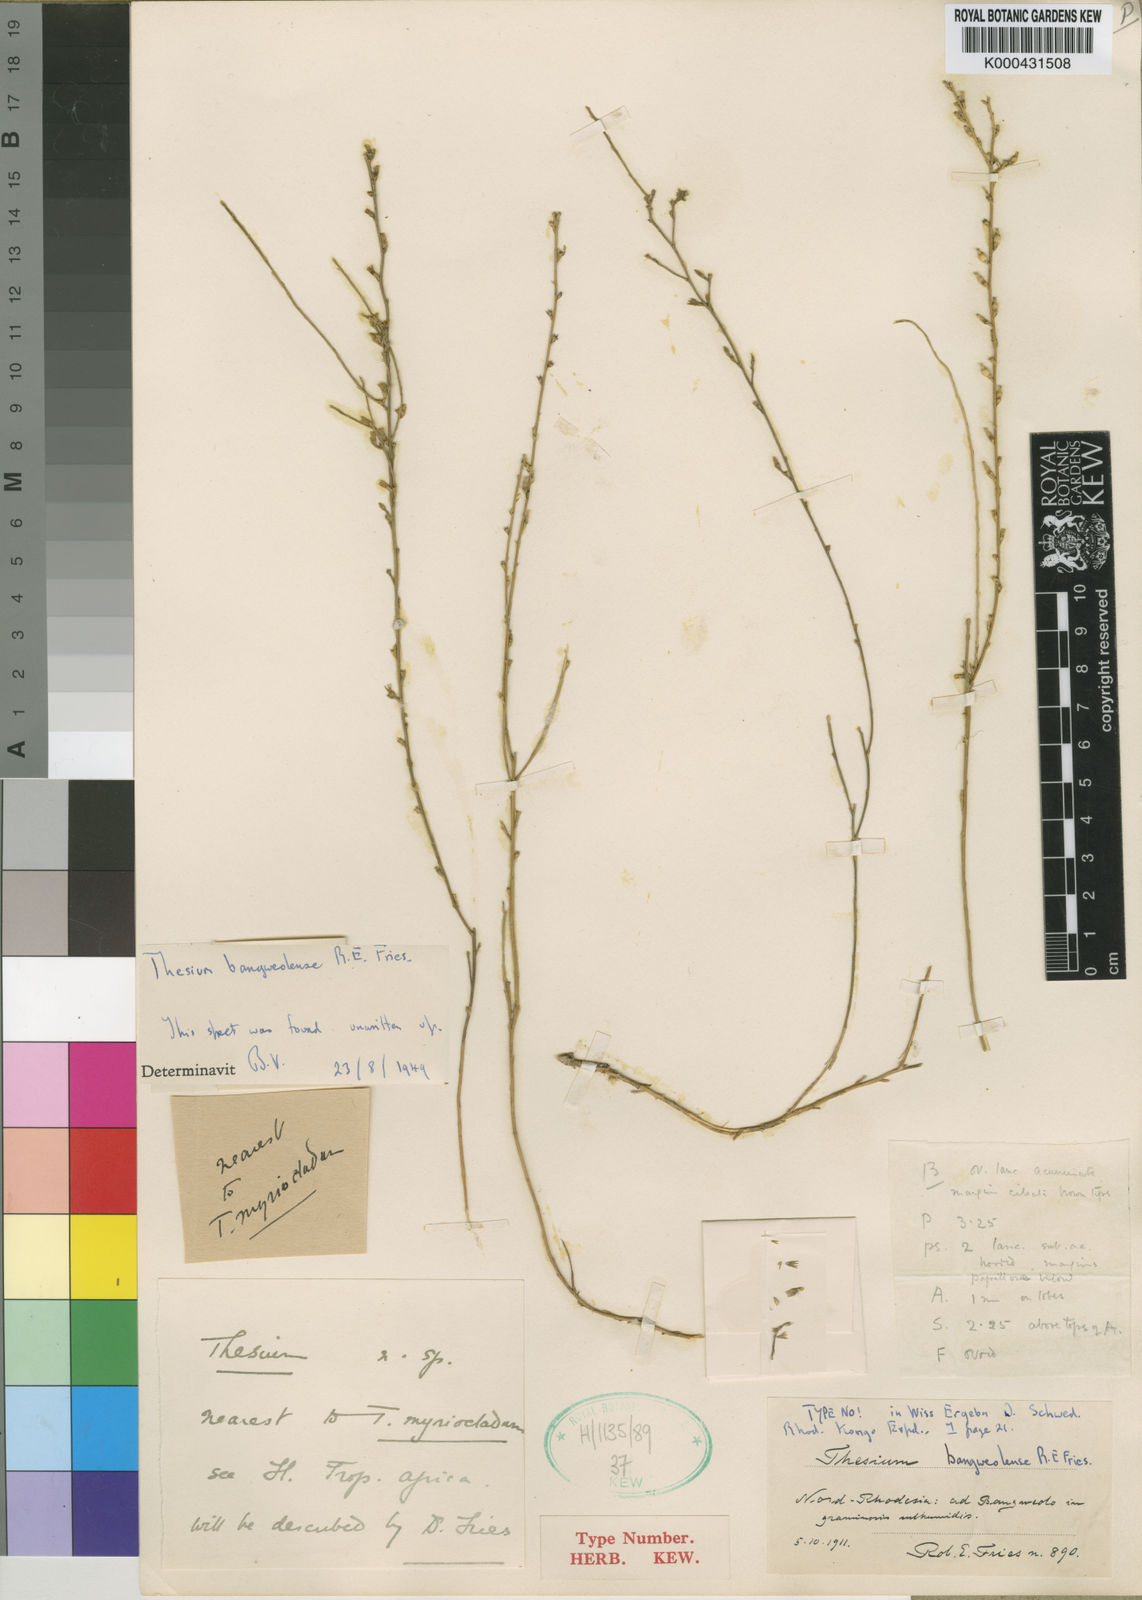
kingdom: Plantae
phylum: Tracheophyta
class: Magnoliopsida
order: Santalales
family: Thesiaceae
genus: Thesium
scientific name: Thesium bangweolense
